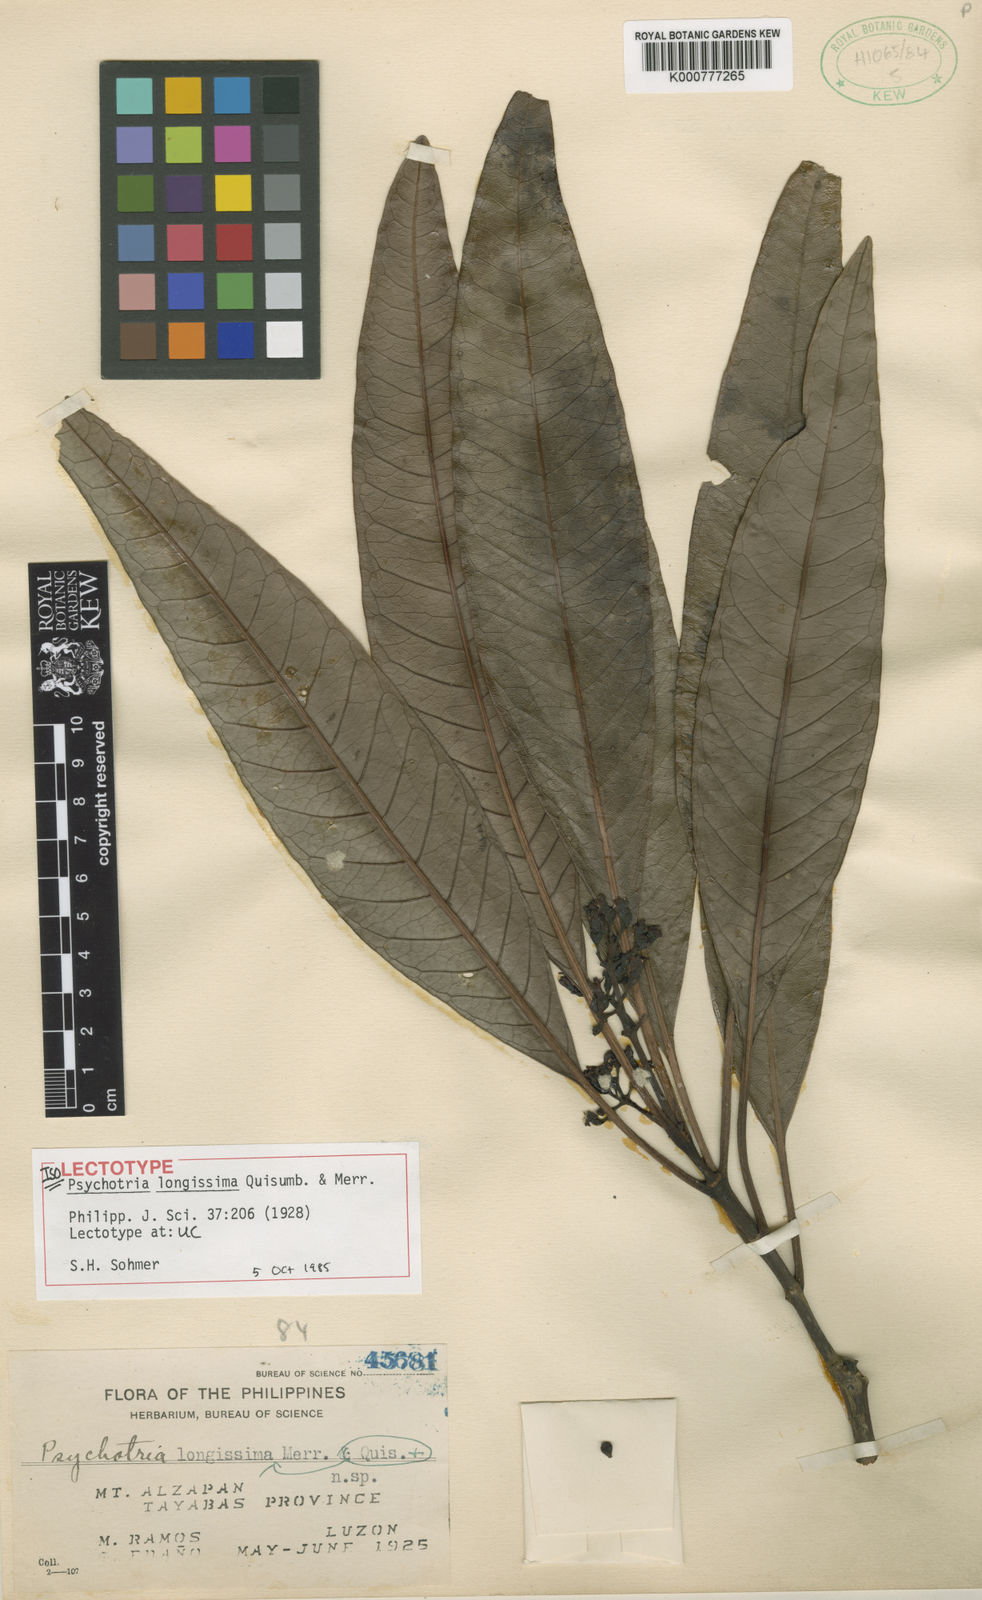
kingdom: Plantae
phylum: Tracheophyta
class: Magnoliopsida
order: Gentianales
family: Rubiaceae
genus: Psychotria
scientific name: Psychotria longissima
